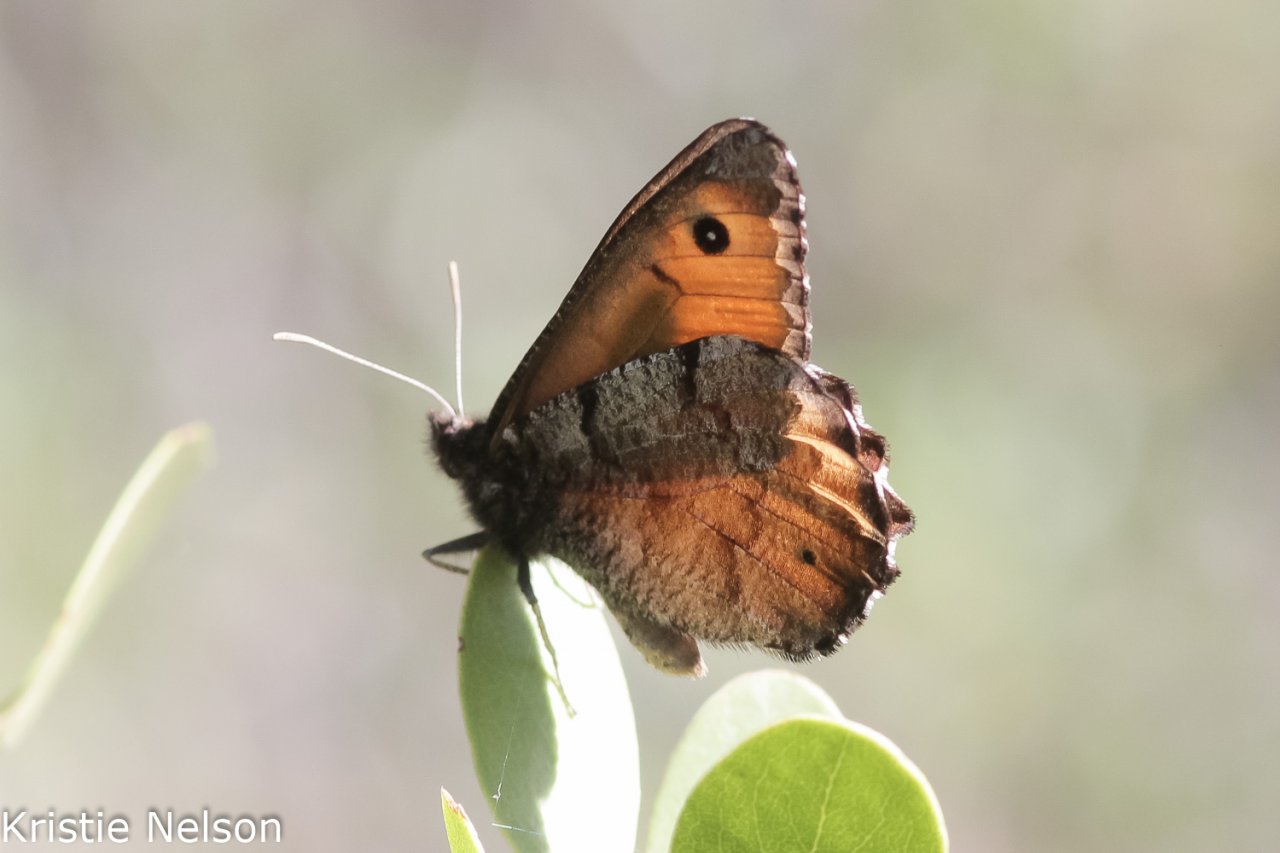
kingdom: Animalia
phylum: Arthropoda
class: Insecta
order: Lepidoptera
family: Nymphalidae
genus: Oeneis
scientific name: Oeneis nevadensis
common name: Great Arctic
